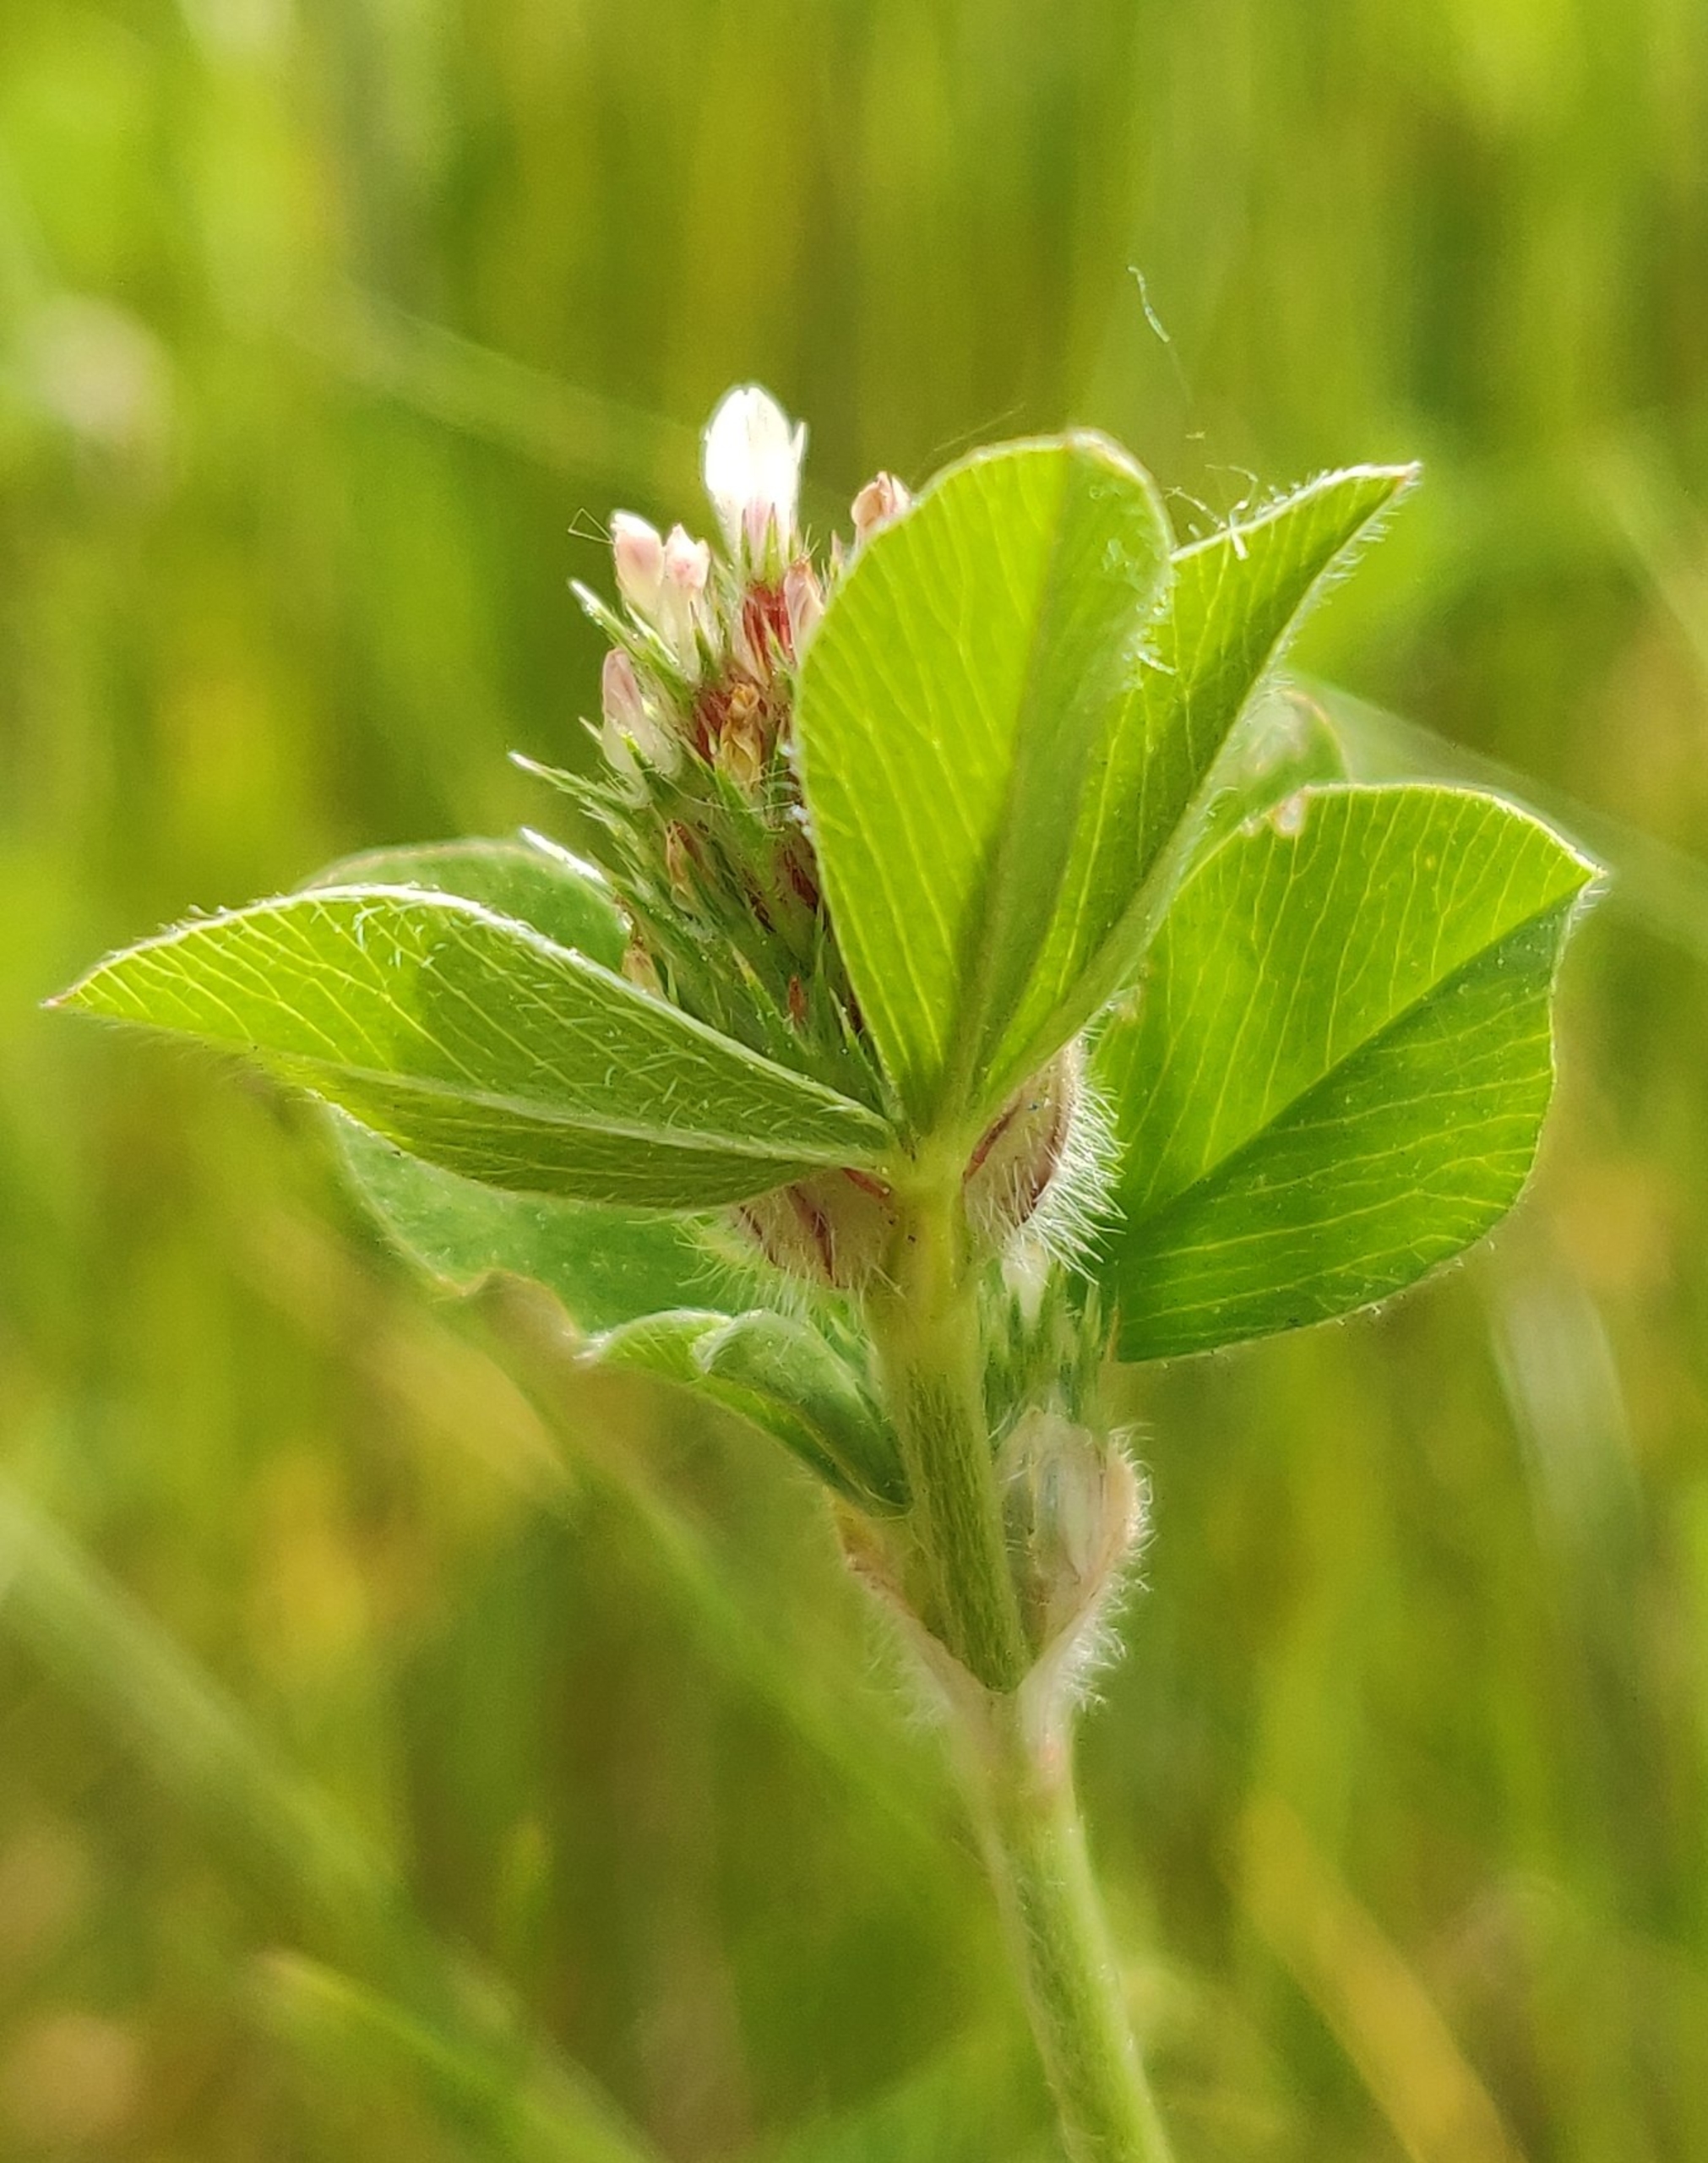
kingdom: Plantae
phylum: Tracheophyta
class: Magnoliopsida
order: Fabales
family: Fabaceae
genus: Trifolium
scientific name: Trifolium striatum
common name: Stribet kløver
